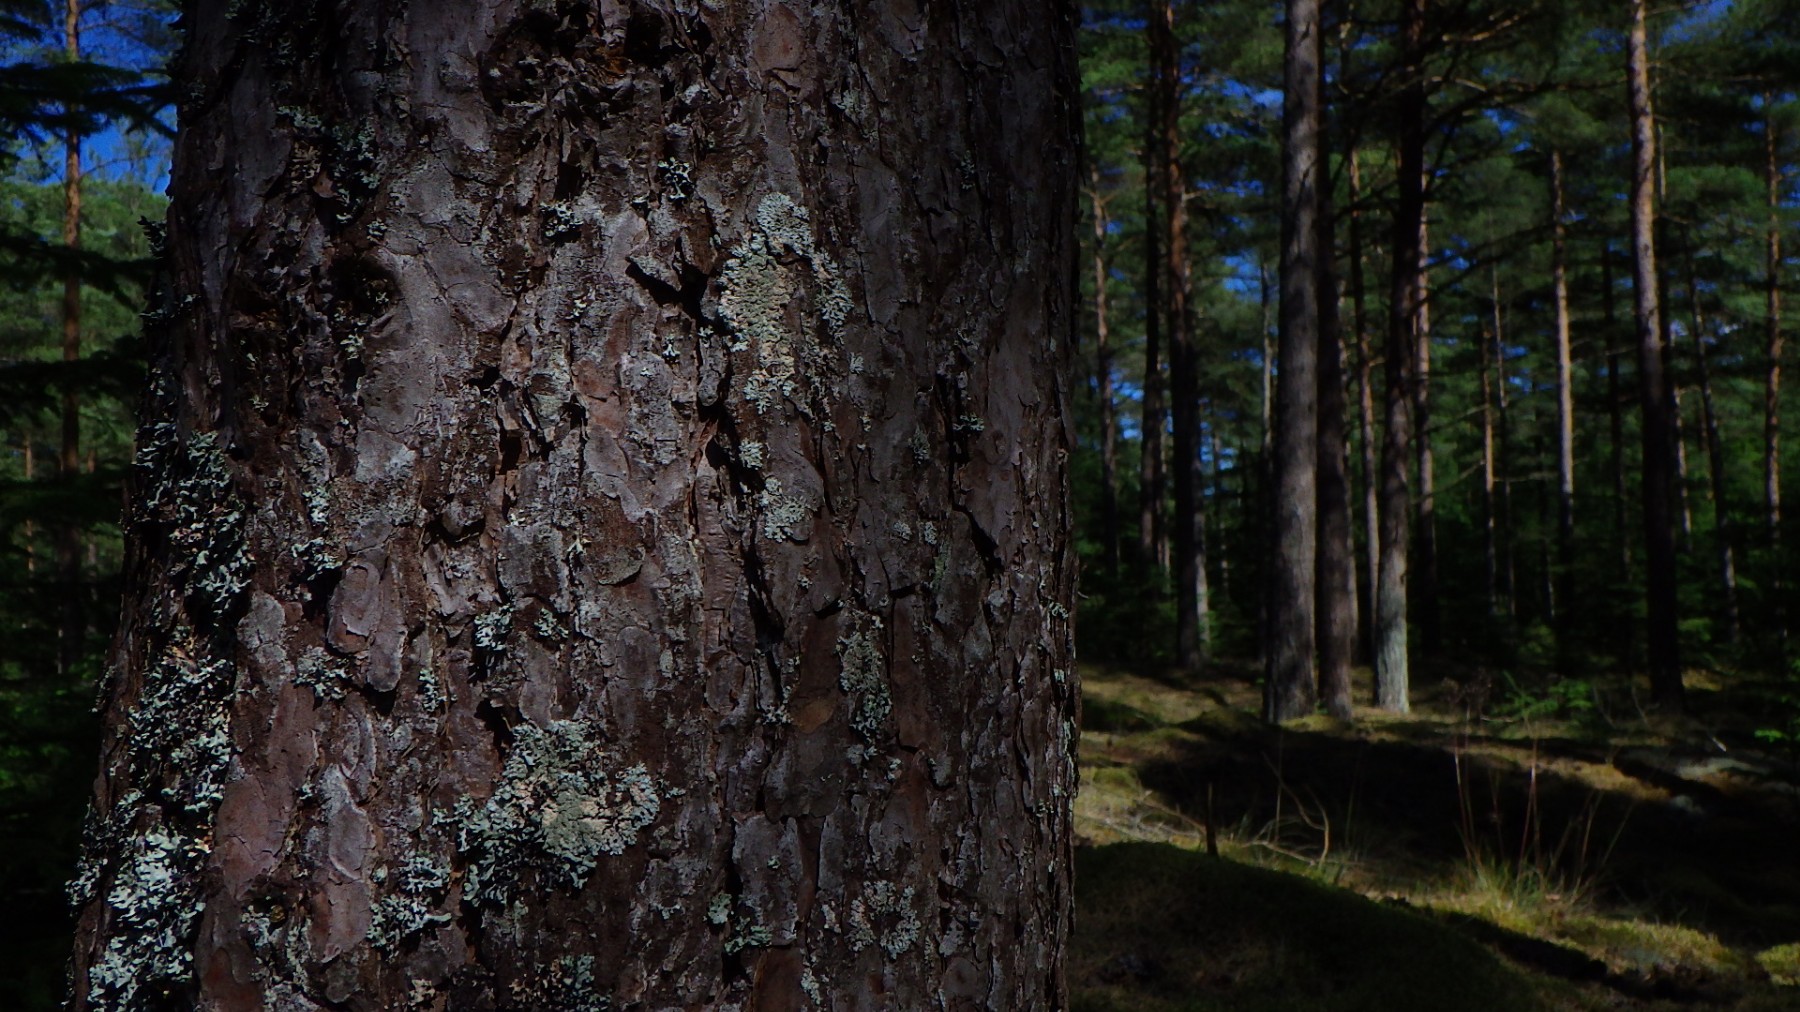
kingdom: Fungi
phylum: Ascomycota
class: Lecanoromycetes
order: Lecanorales
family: Parmeliaceae
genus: Imshaugia
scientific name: Imshaugia aleurites
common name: kliddet stolpelav
